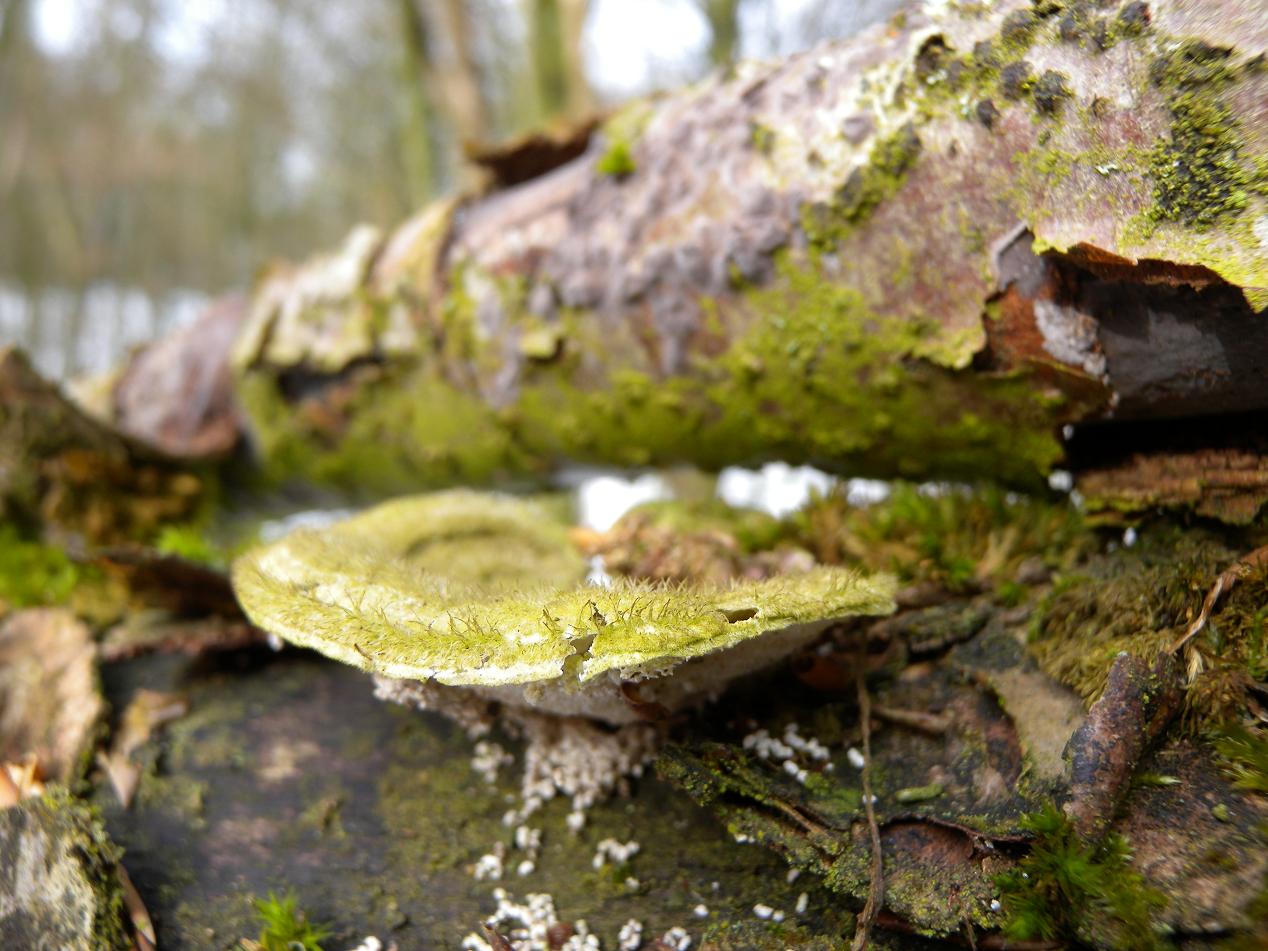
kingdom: Fungi
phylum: Basidiomycota
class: Agaricomycetes
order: Polyporales
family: Polyporaceae
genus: Trametes
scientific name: Trametes hirsuta
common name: håret læderporesvamp
